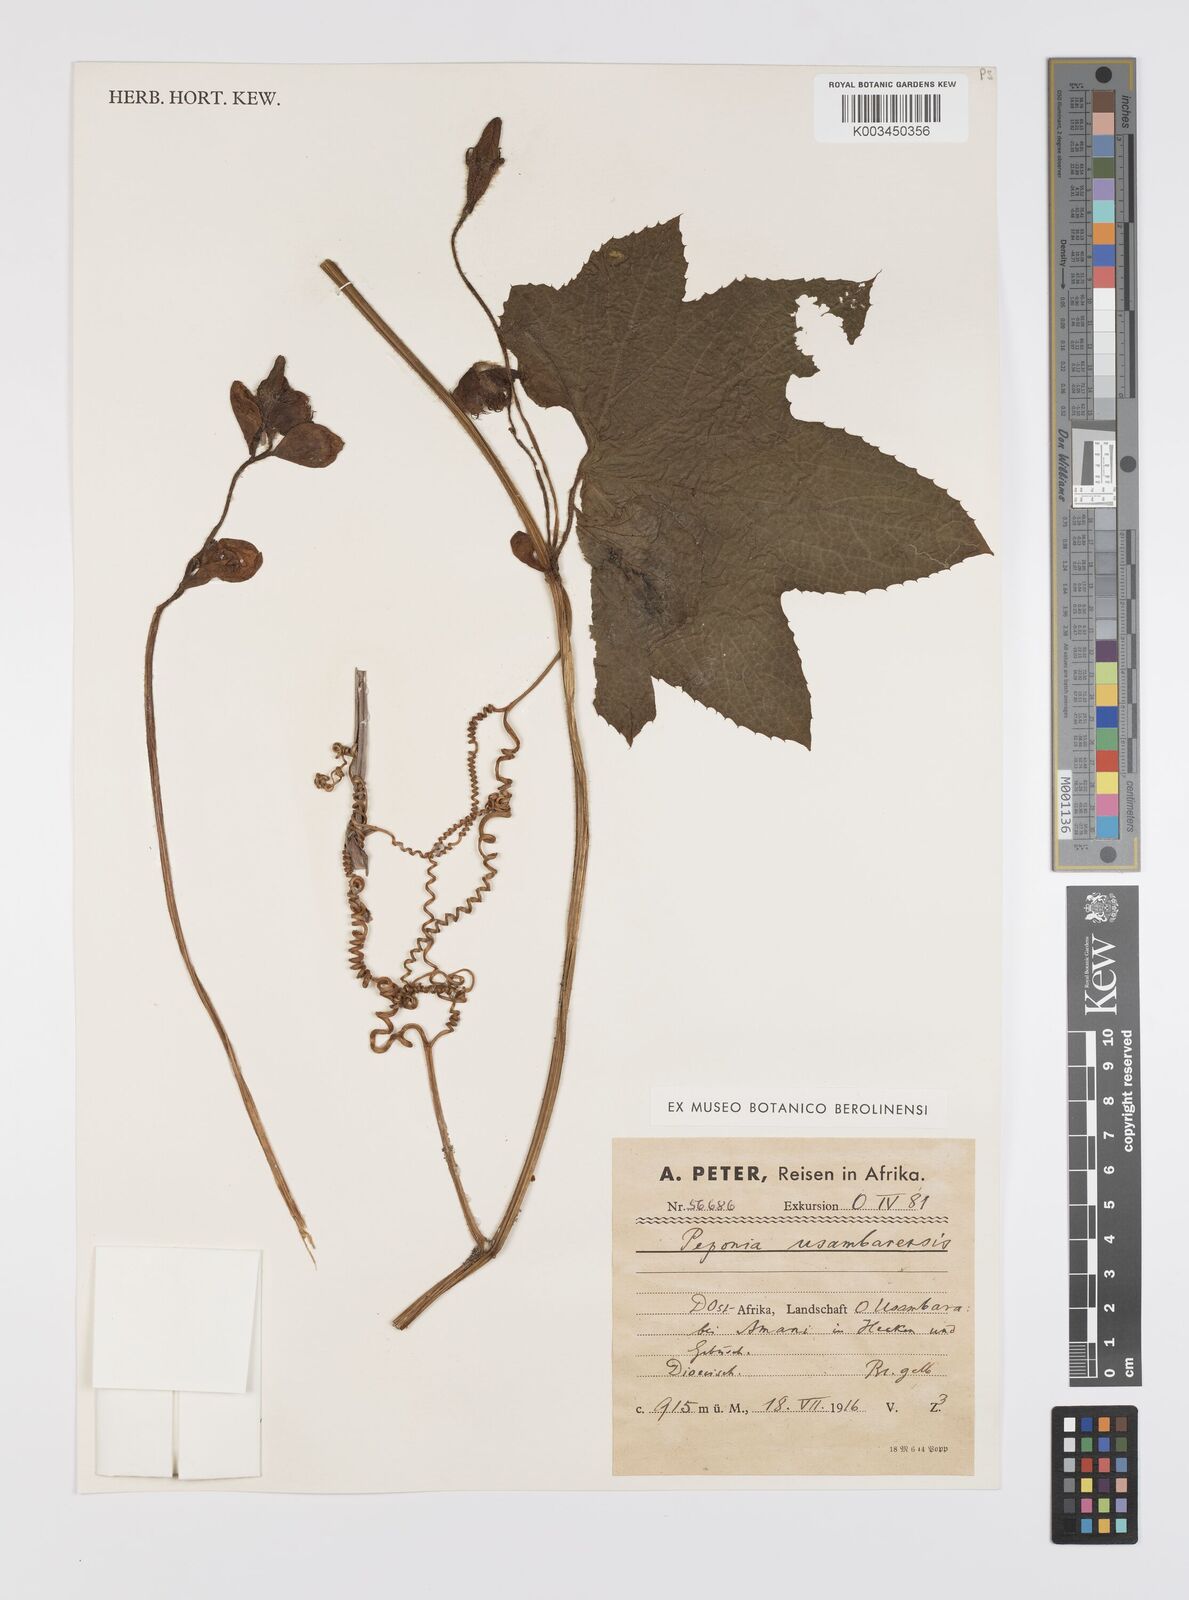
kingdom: Plantae
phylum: Tracheophyta
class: Magnoliopsida
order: Cucurbitales
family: Cucurbitaceae
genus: Peponium
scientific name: Peponium vogelii
